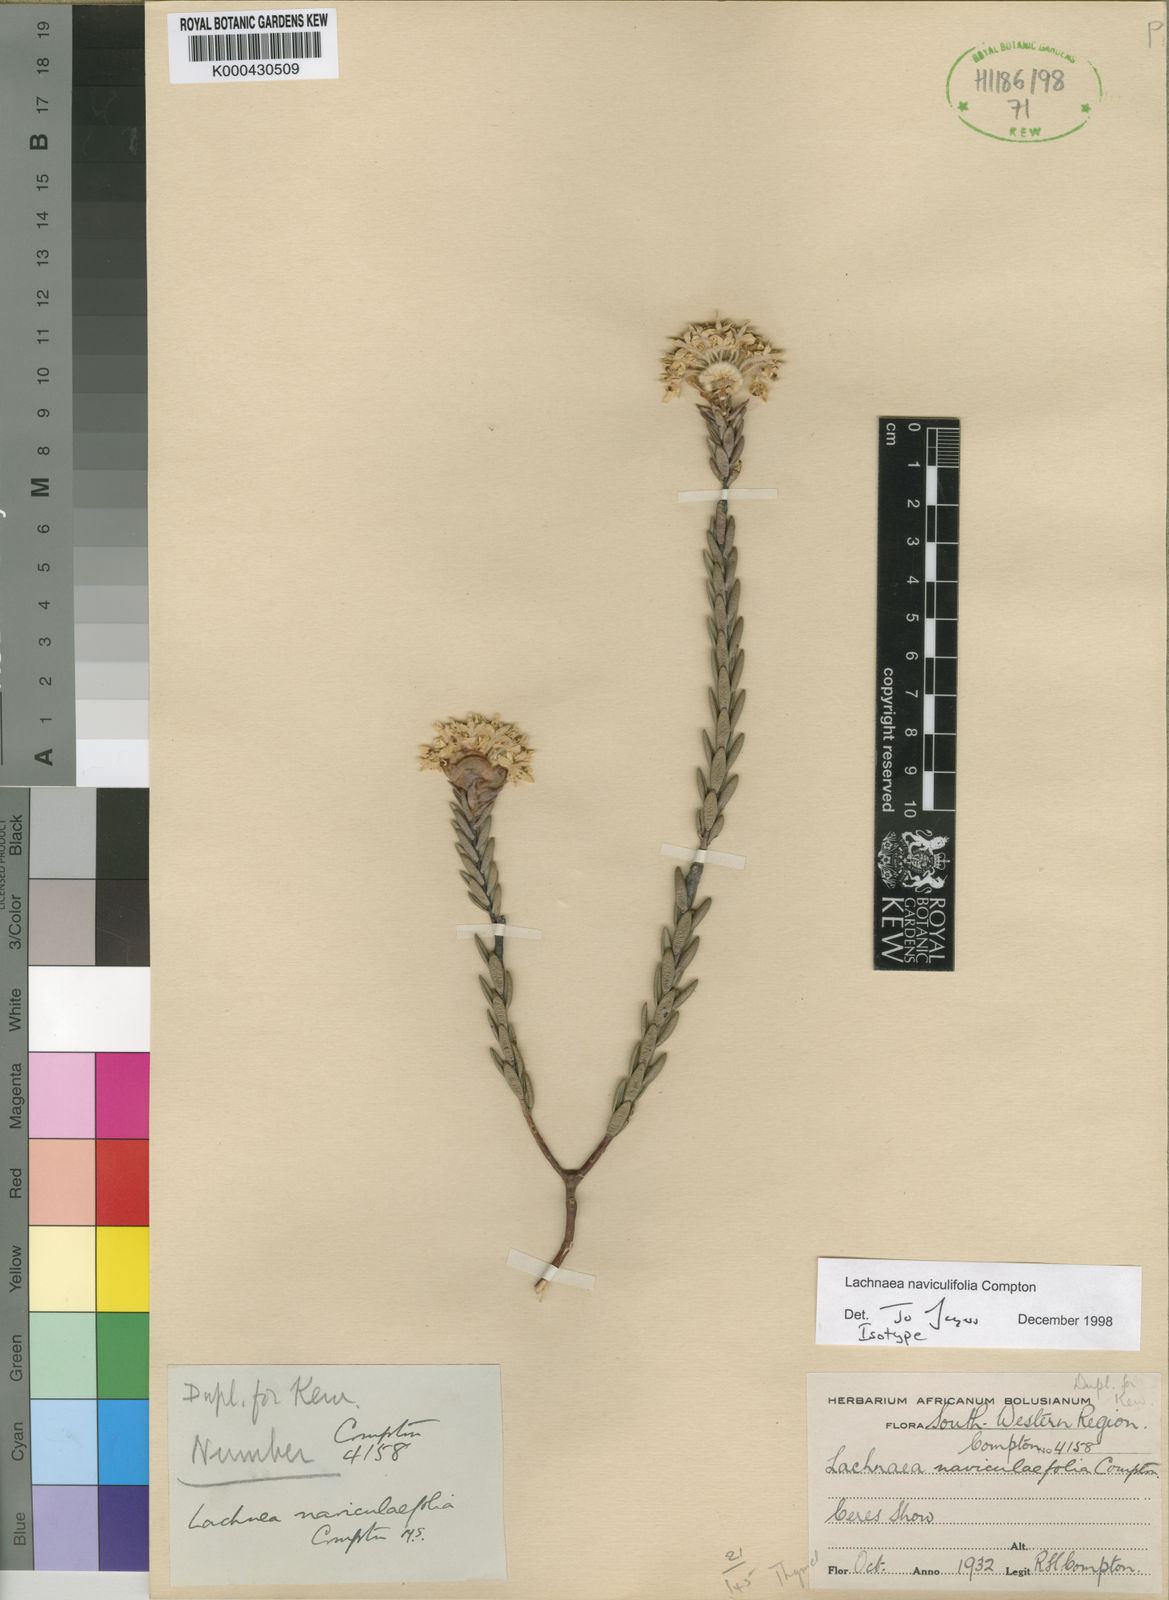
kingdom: Plantae
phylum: Tracheophyta
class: Magnoliopsida
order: Malvales
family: Thymelaeaceae
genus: Lachnaea
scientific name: Lachnaea naviculifolia
